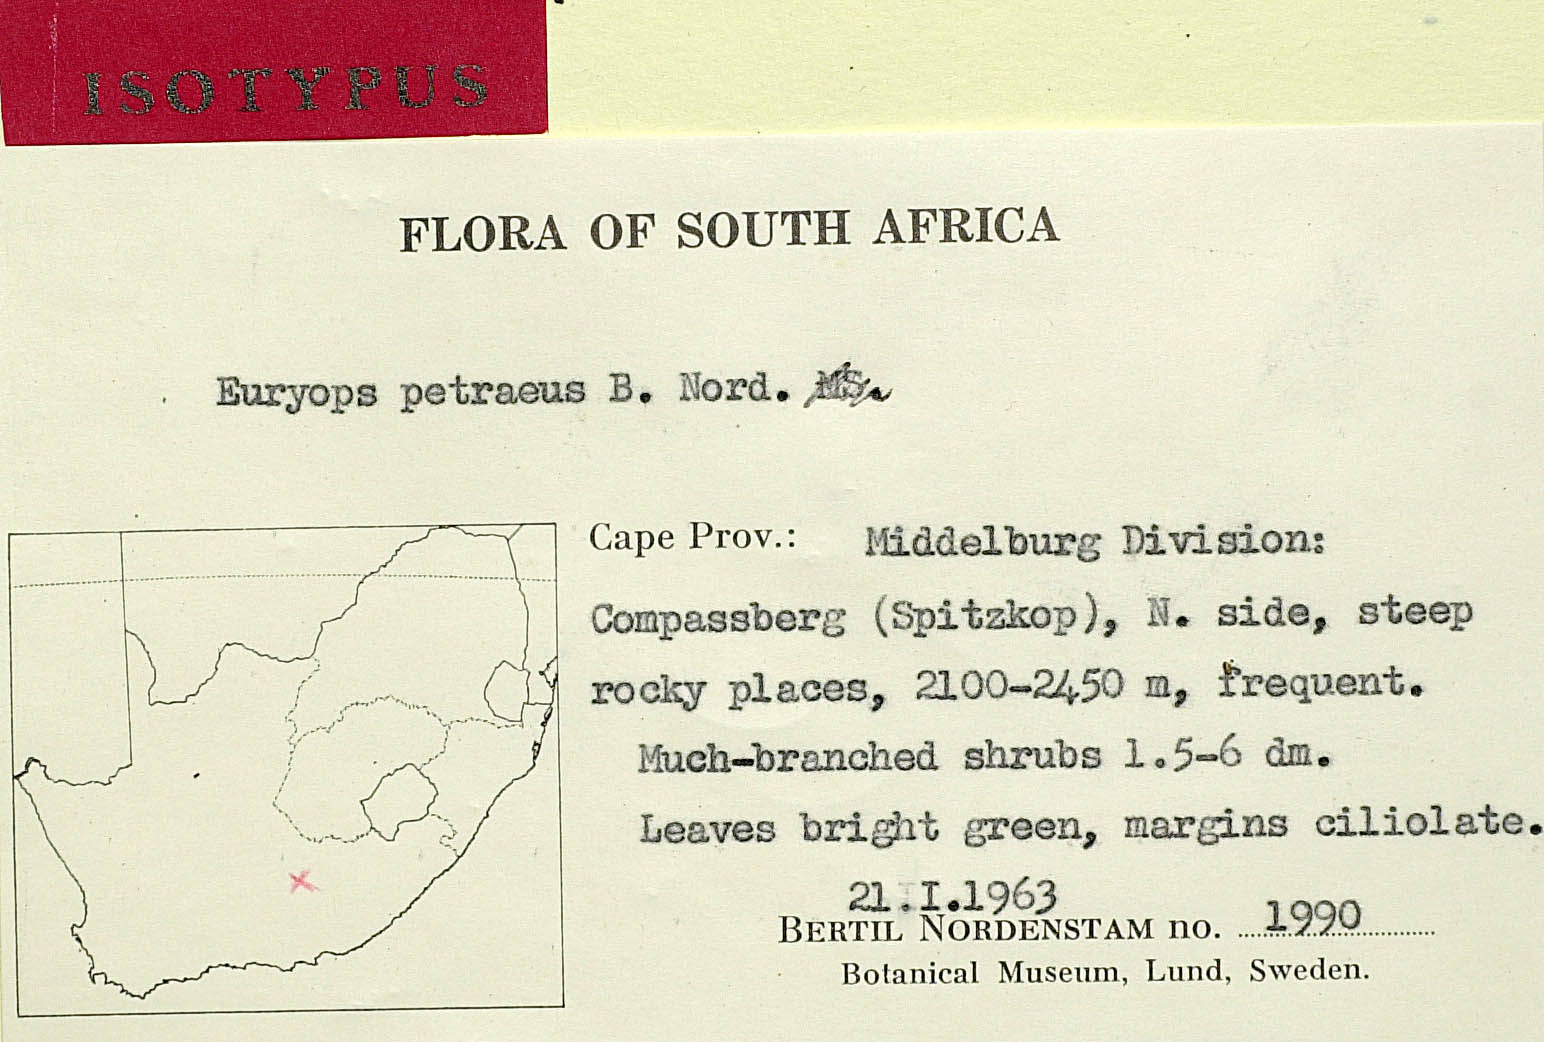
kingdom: Plantae
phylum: Tracheophyta
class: Magnoliopsida
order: Asterales
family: Asteraceae
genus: Euryops
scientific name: Euryops petraeus
